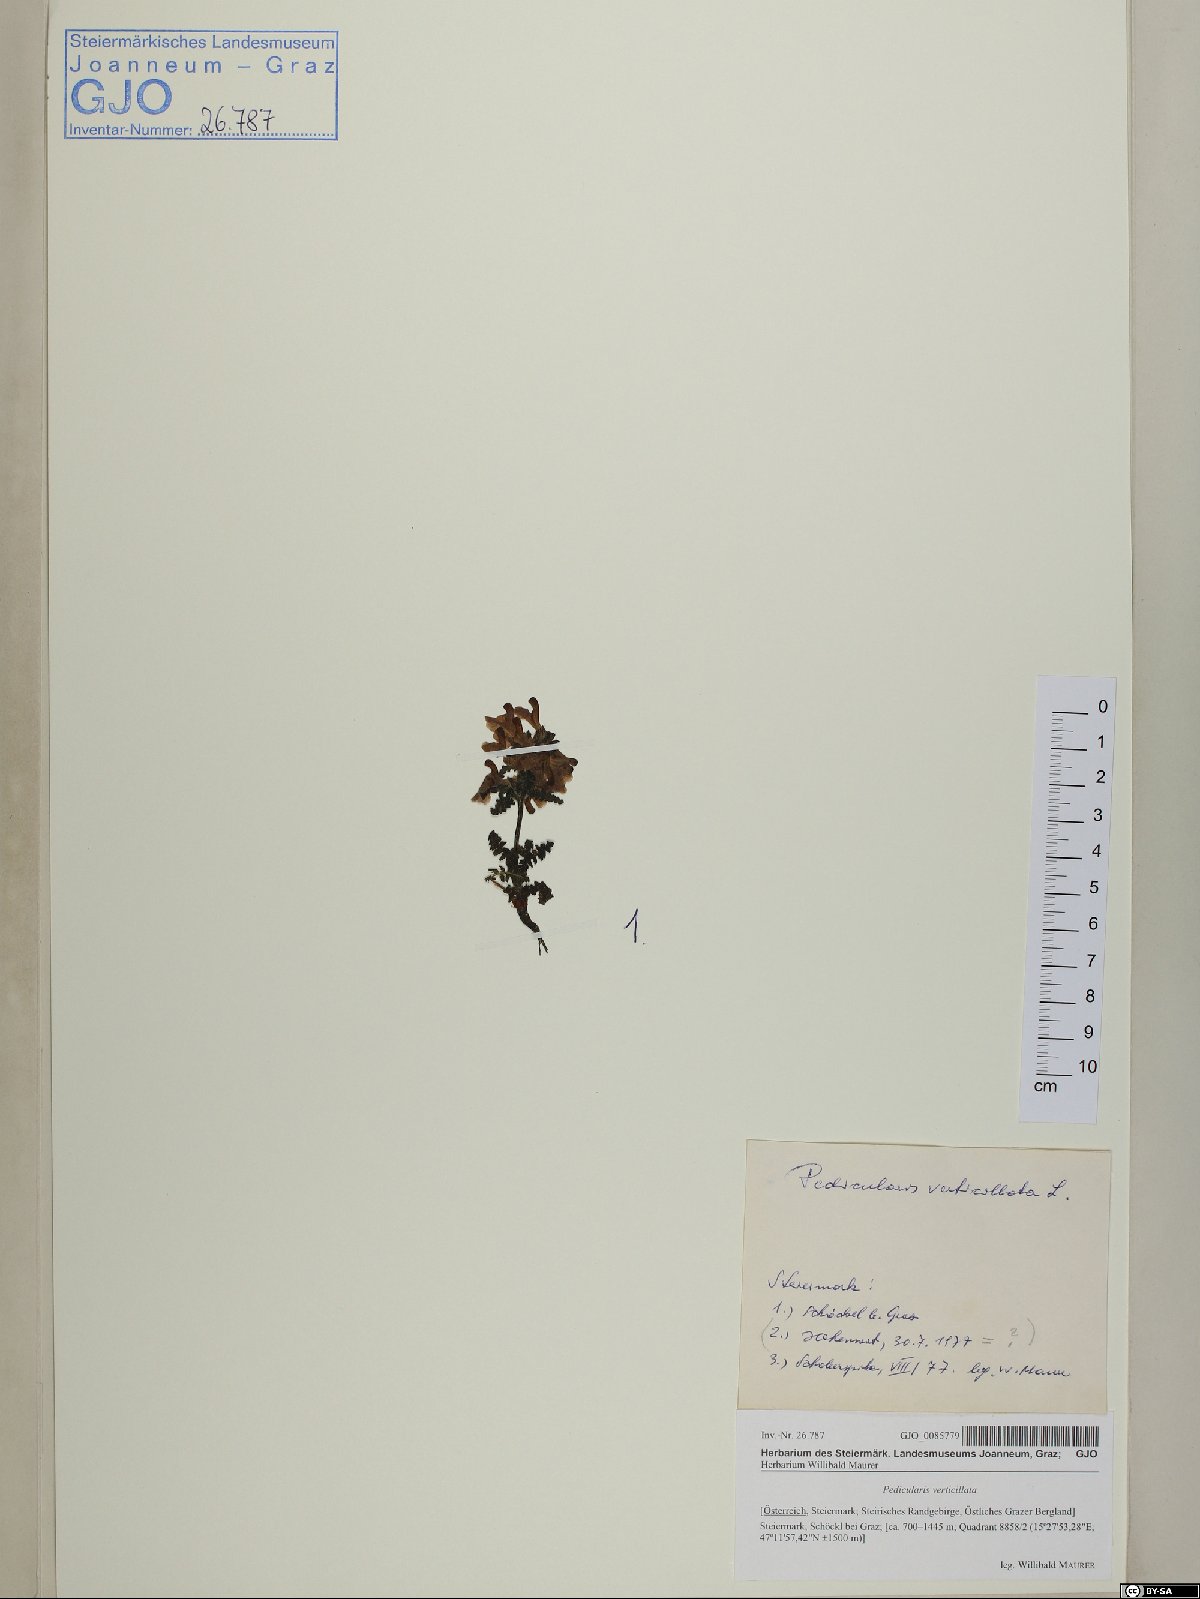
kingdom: Plantae
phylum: Tracheophyta
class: Magnoliopsida
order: Lamiales
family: Orobanchaceae
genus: Pedicularis
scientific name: Pedicularis verticillata
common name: Whorled lousewort
